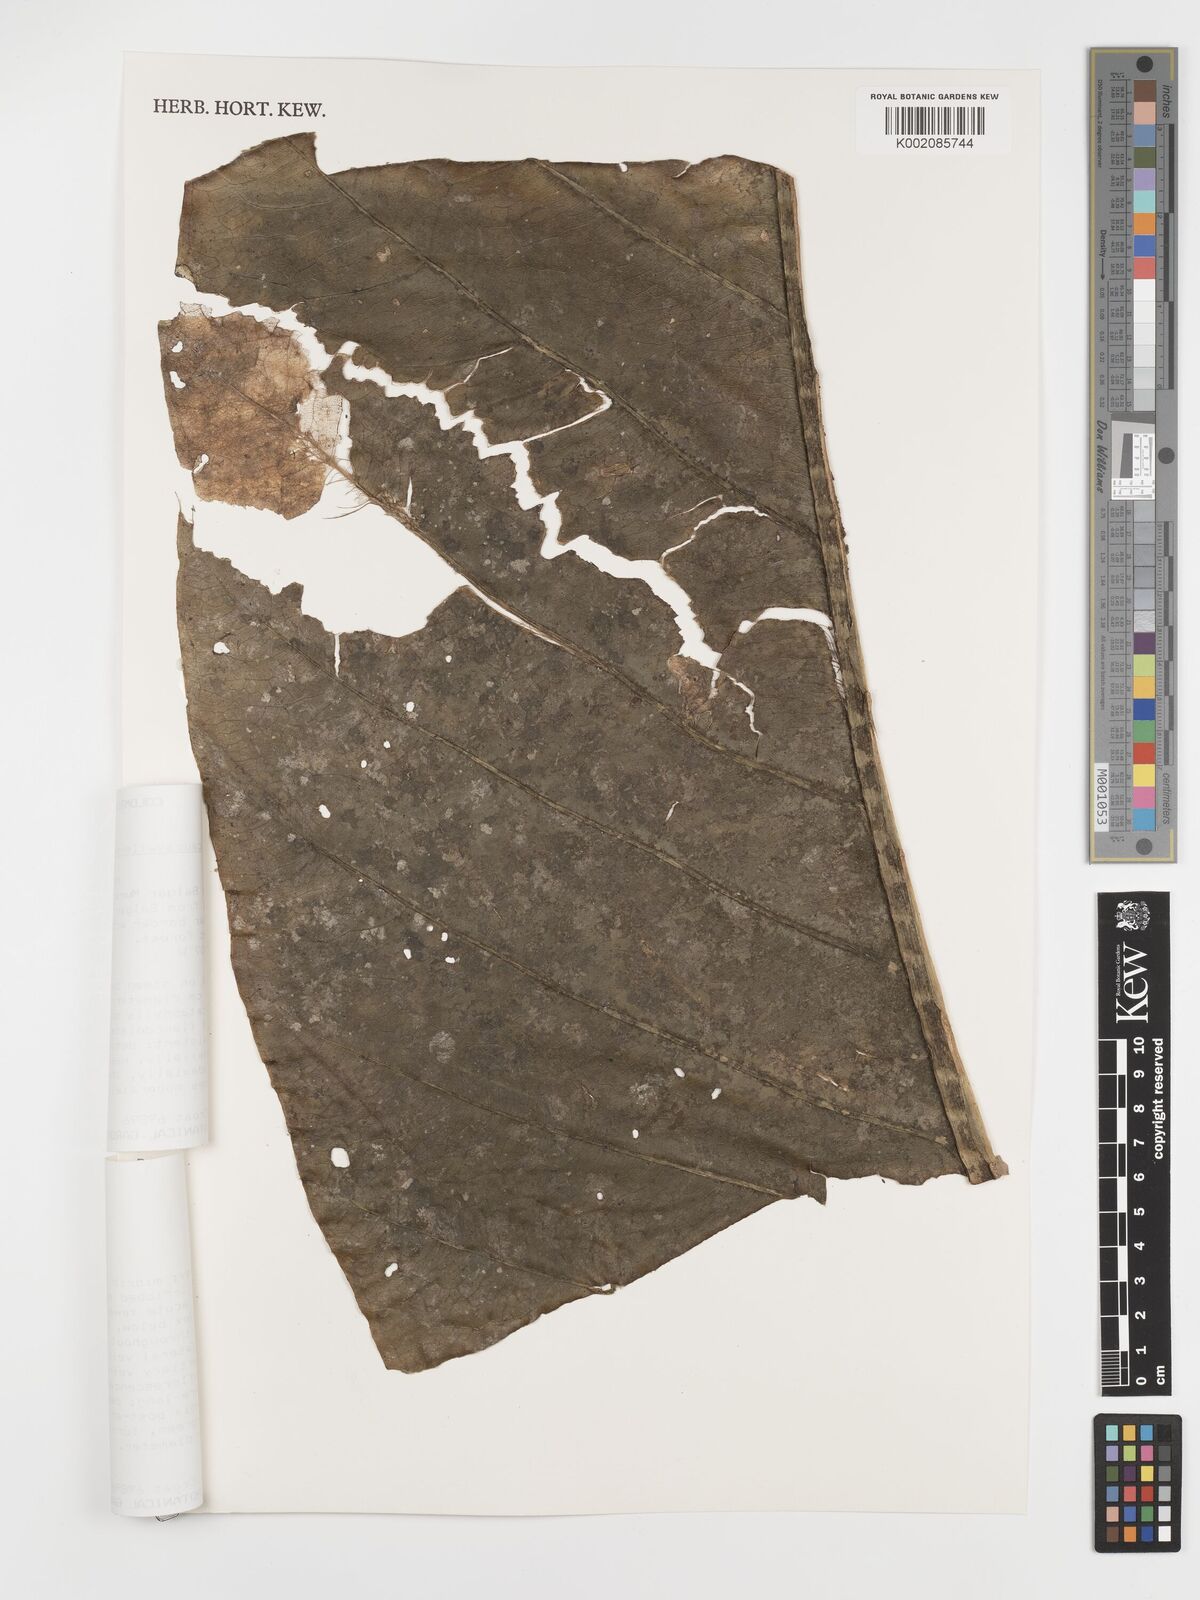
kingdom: Plantae
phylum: Tracheophyta
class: Liliopsida
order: Alismatales
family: Araceae
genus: Anthurium
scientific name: Anthurium caucavallense
